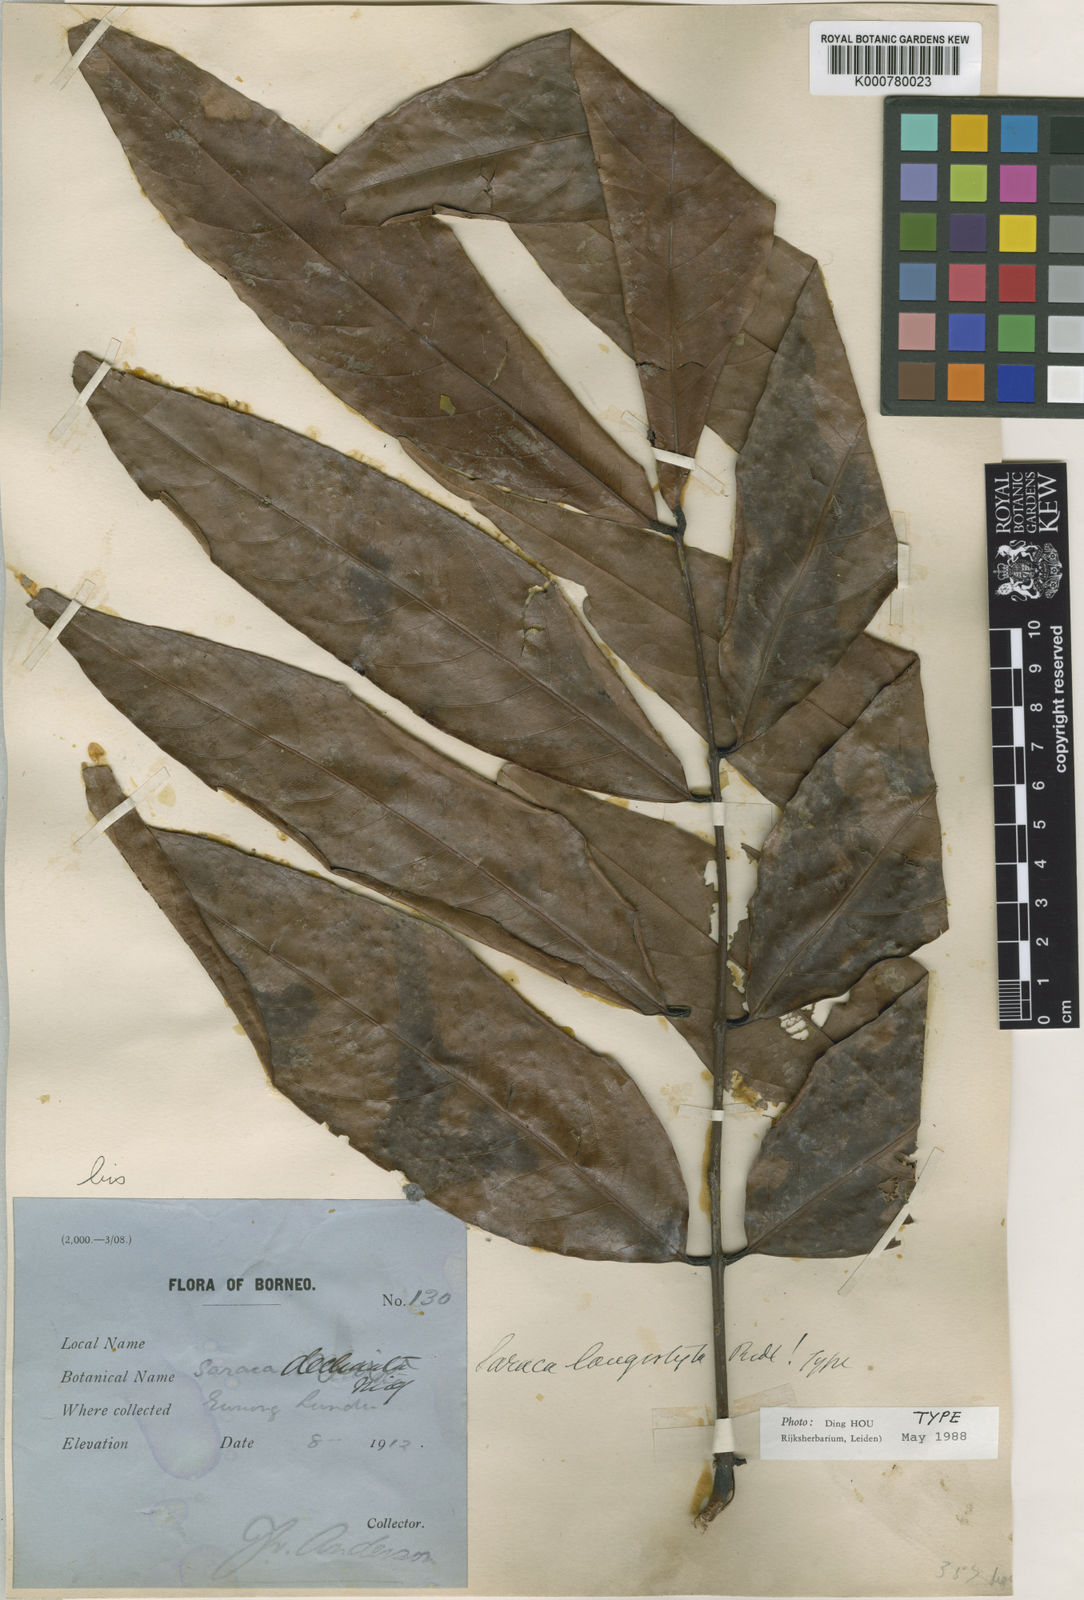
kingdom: Plantae
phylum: Tracheophyta
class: Magnoliopsida
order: Fabales
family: Fabaceae
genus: Saraca
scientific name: Saraca declinata
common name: Red saraca
